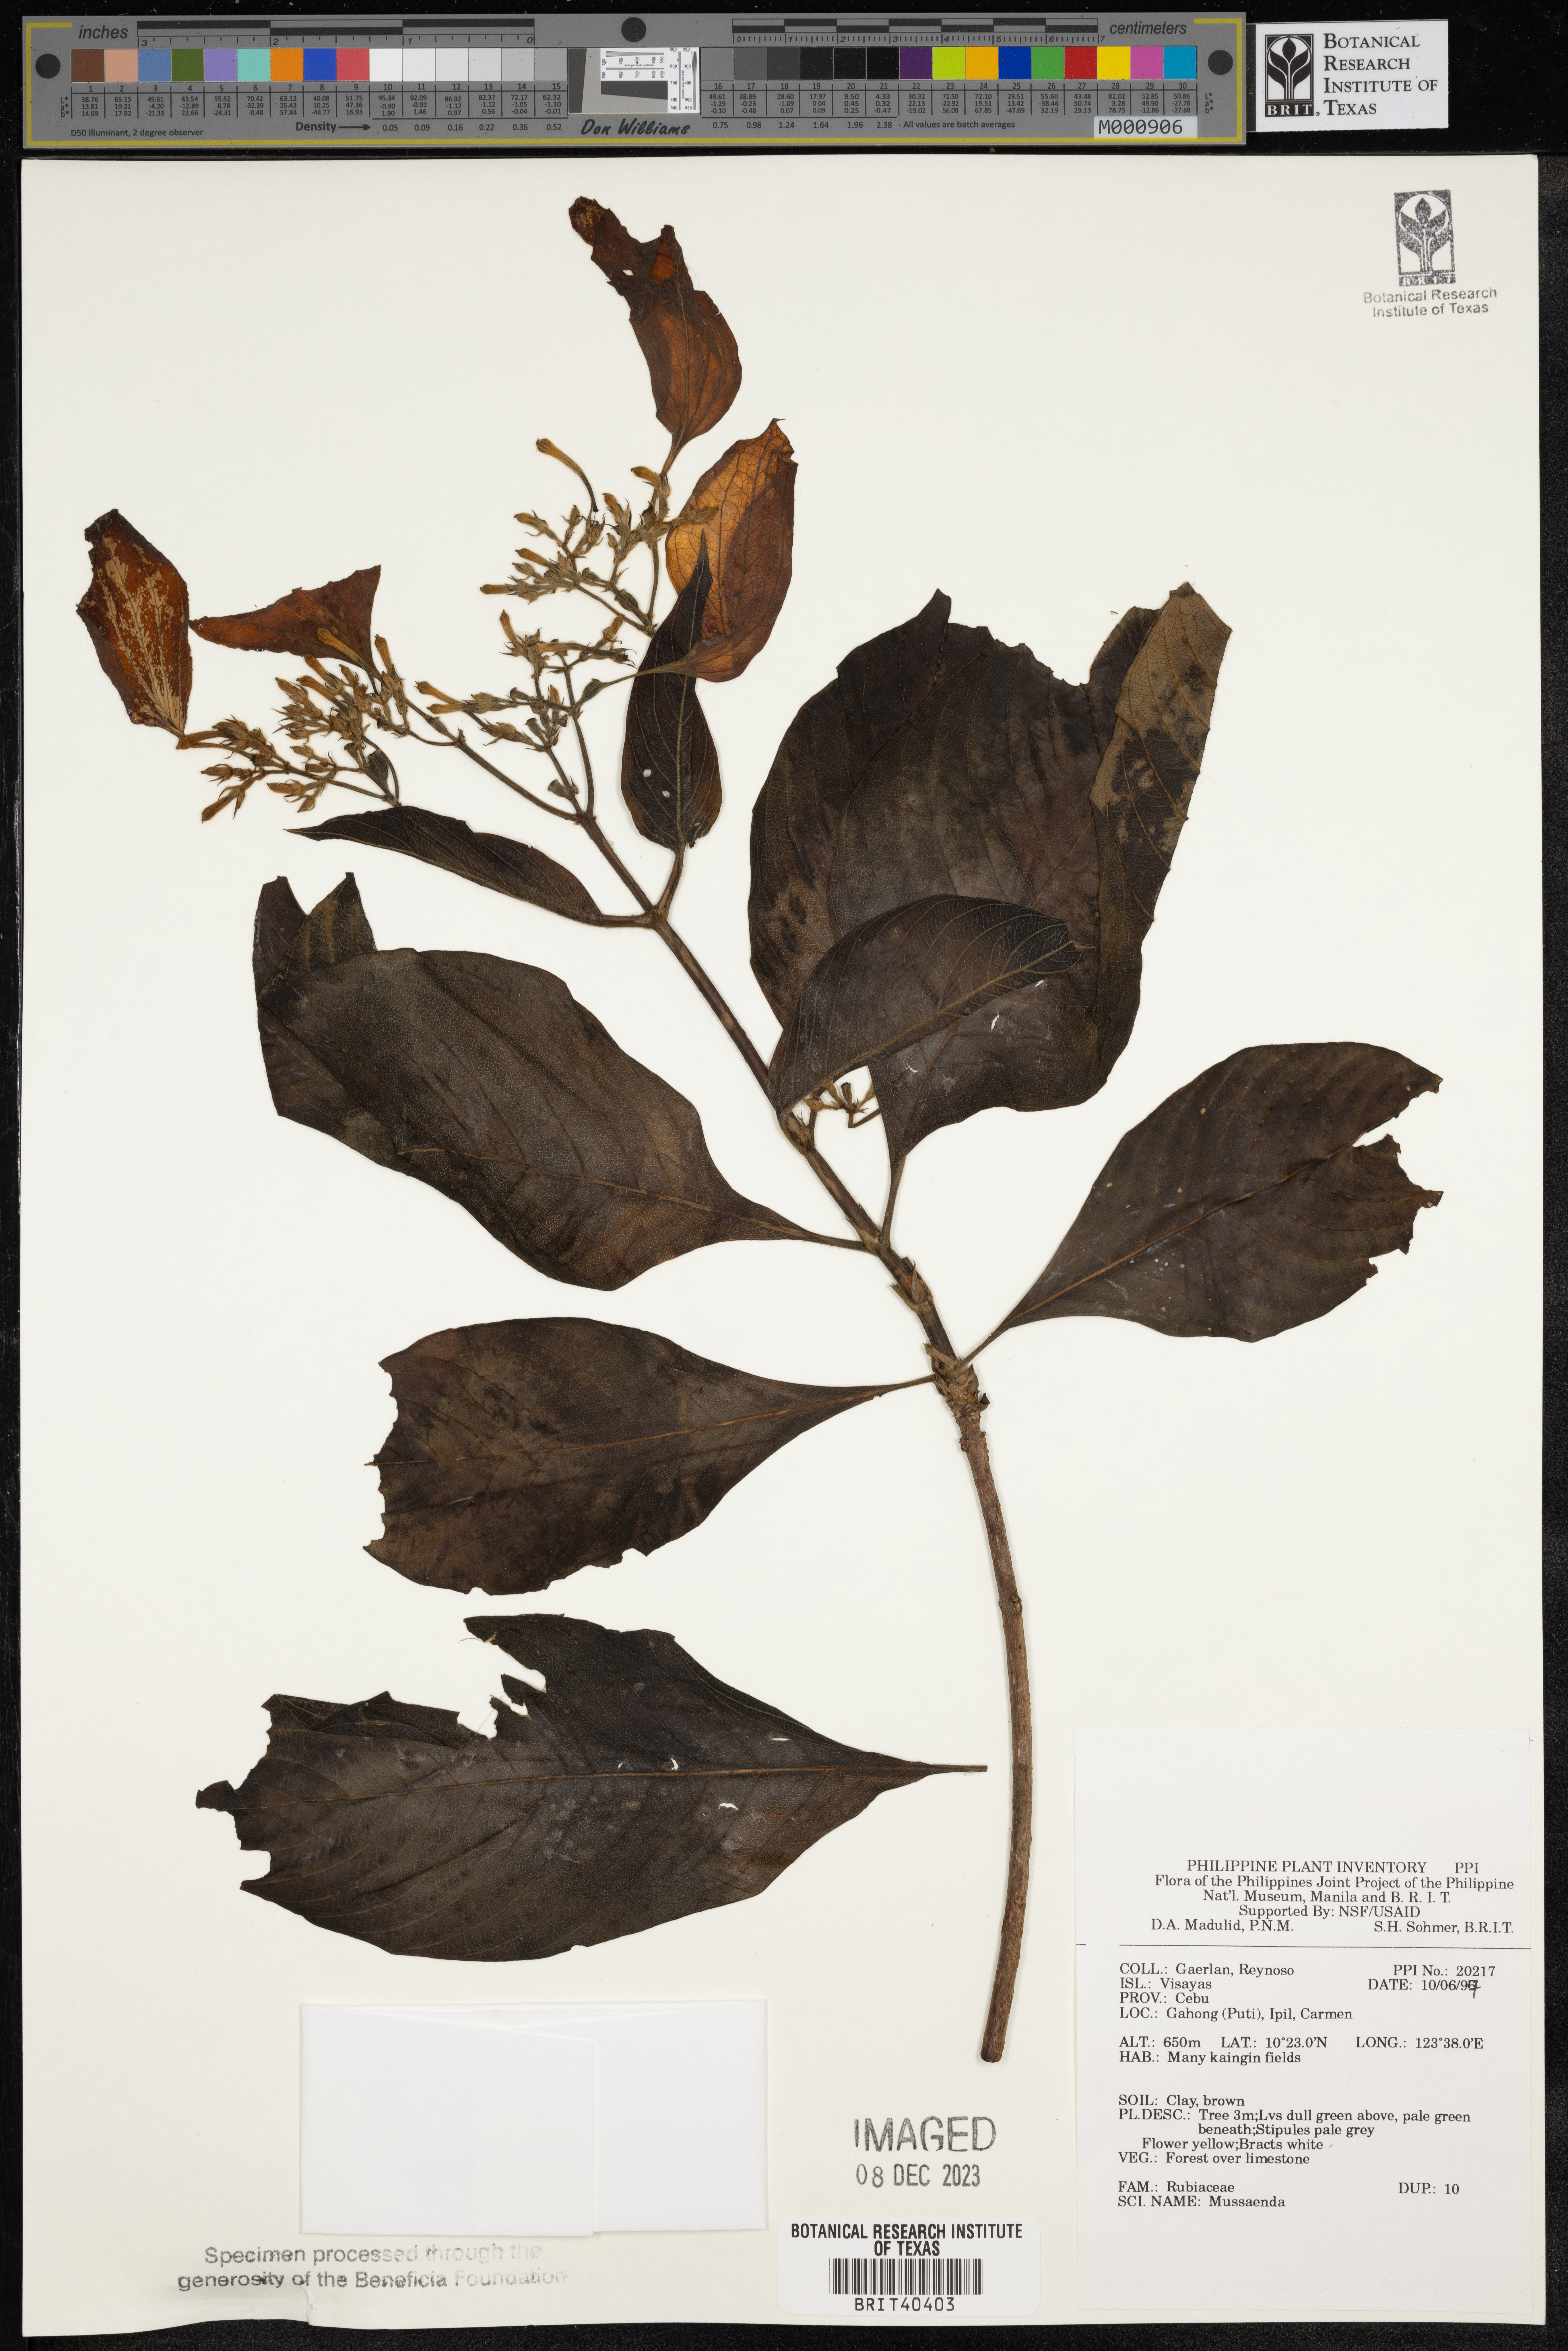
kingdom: Plantae
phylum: Tracheophyta
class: Magnoliopsida
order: Gentianales
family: Rubiaceae
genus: Mussaenda
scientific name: Mussaenda
